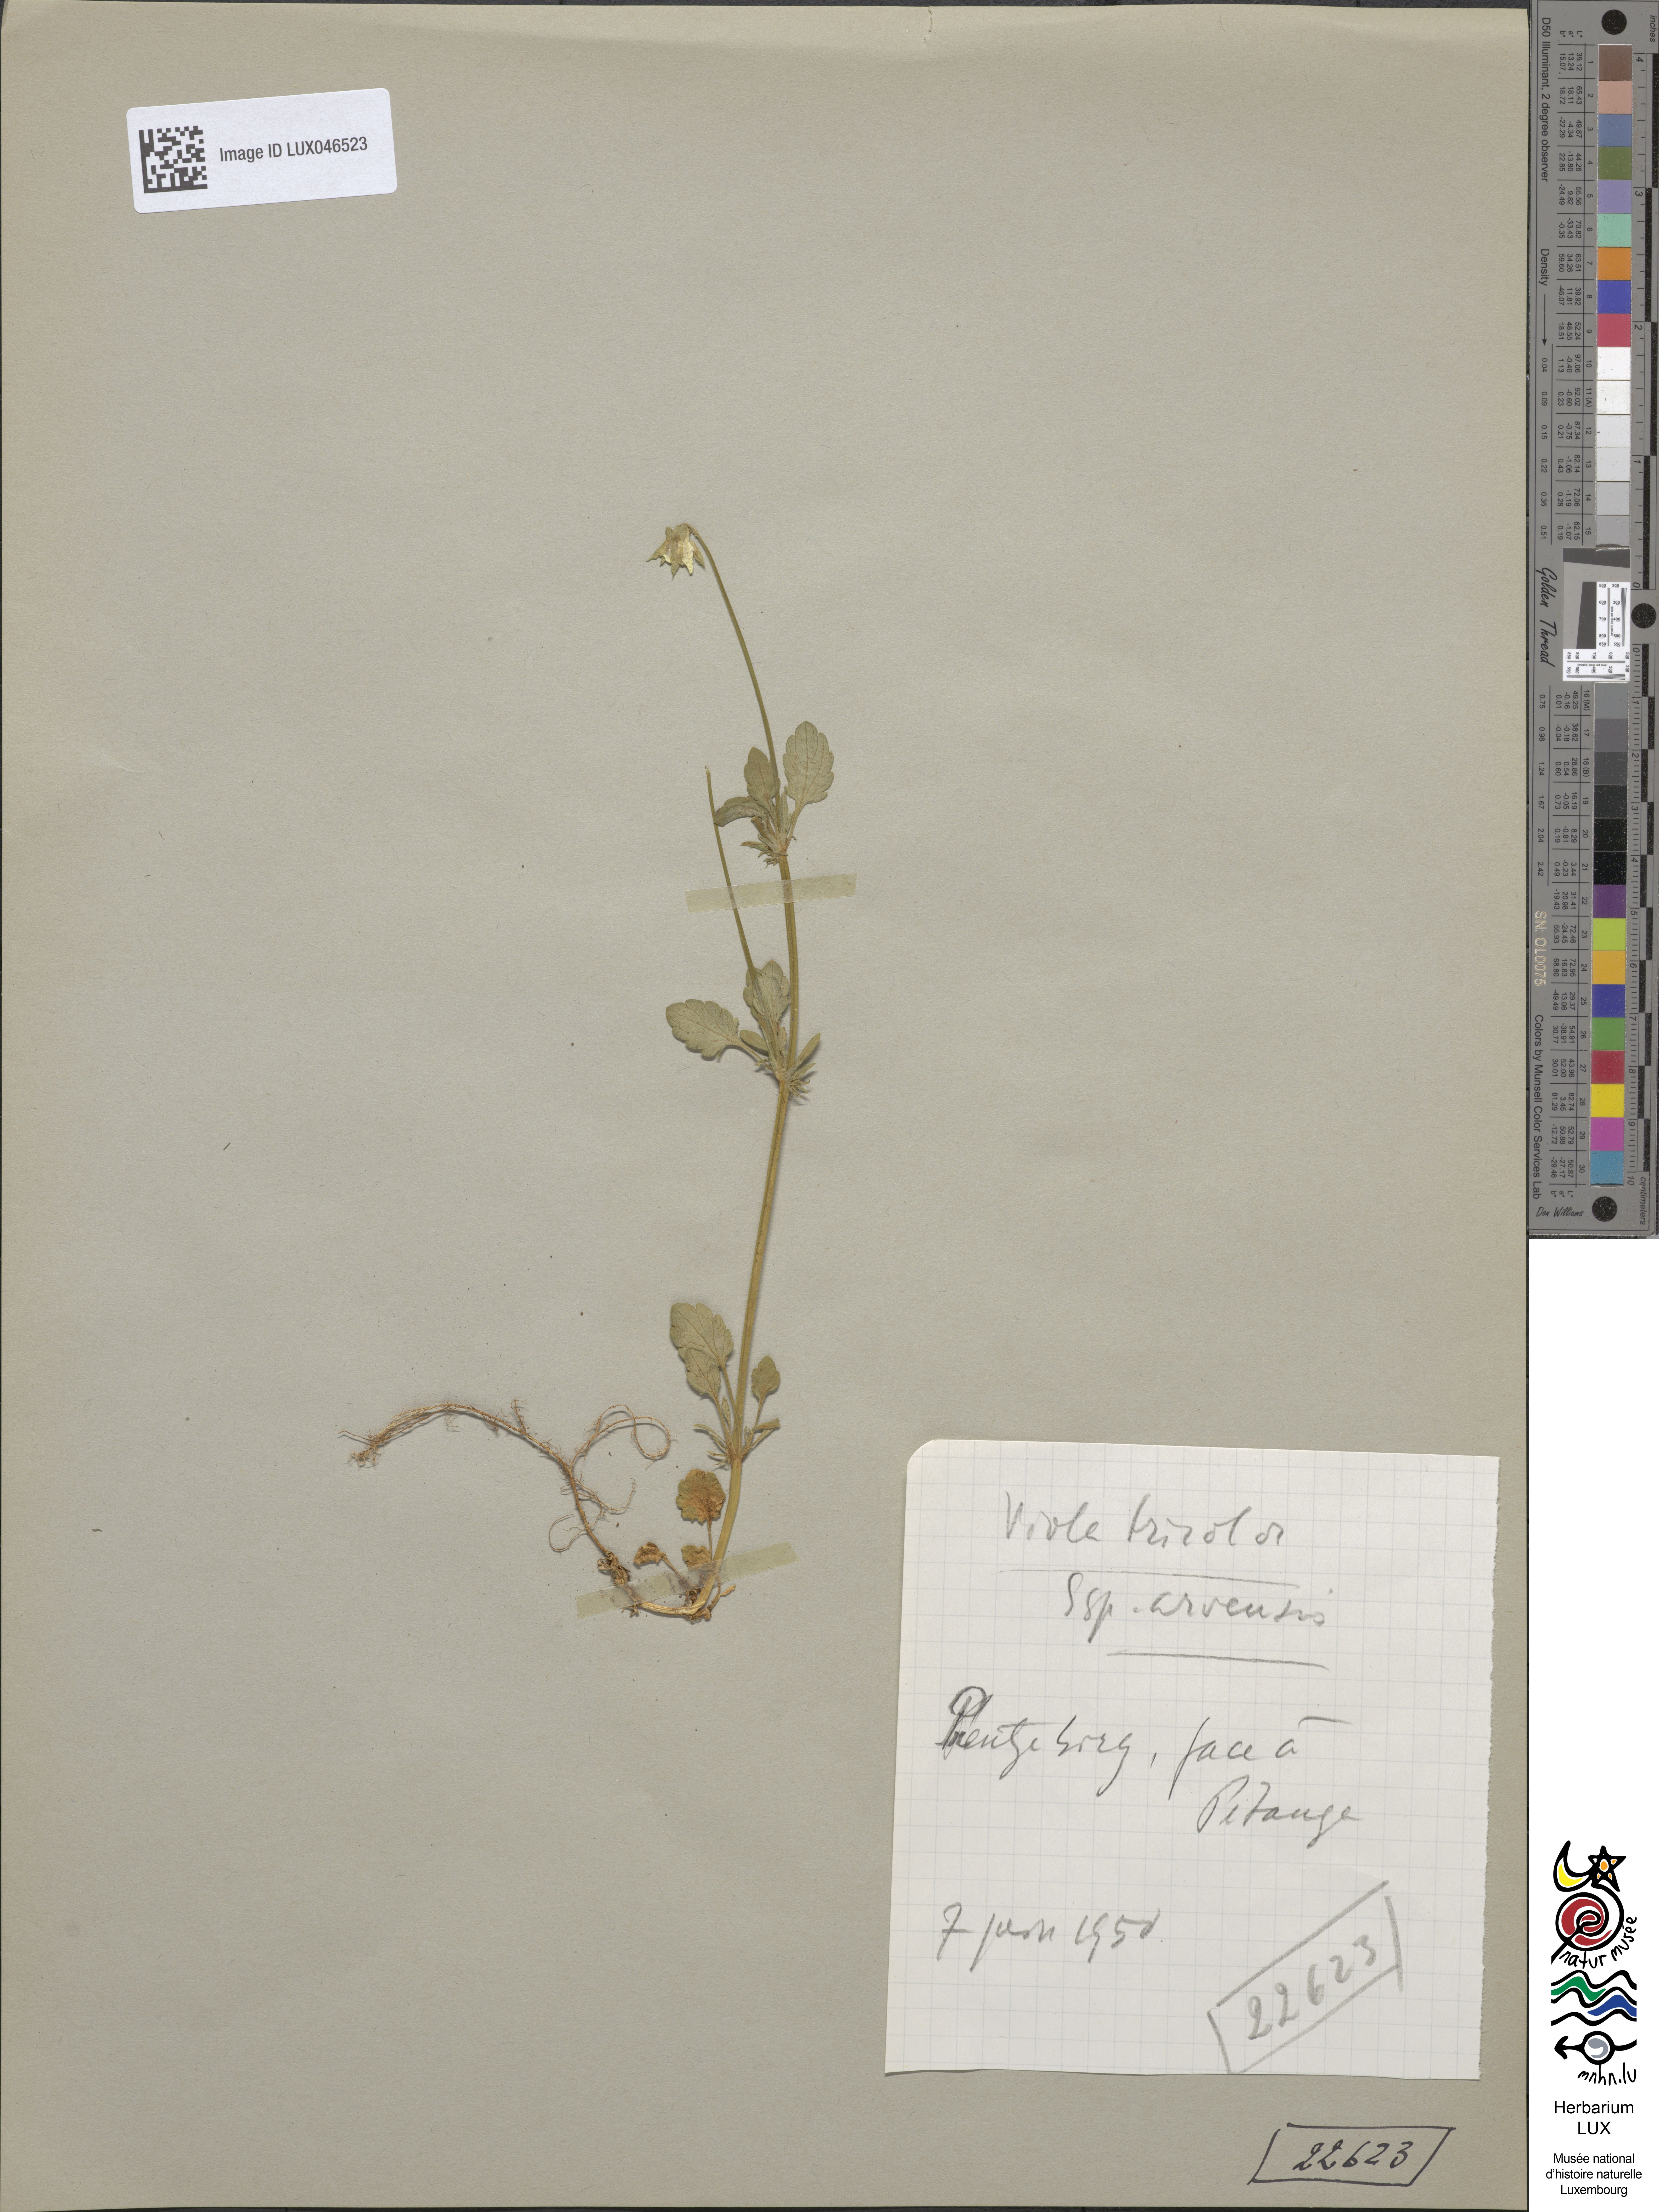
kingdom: Plantae
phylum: Tracheophyta
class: Magnoliopsida
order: Malpighiales
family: Violaceae
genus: Viola
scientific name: Viola arvensis
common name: Field pansy
